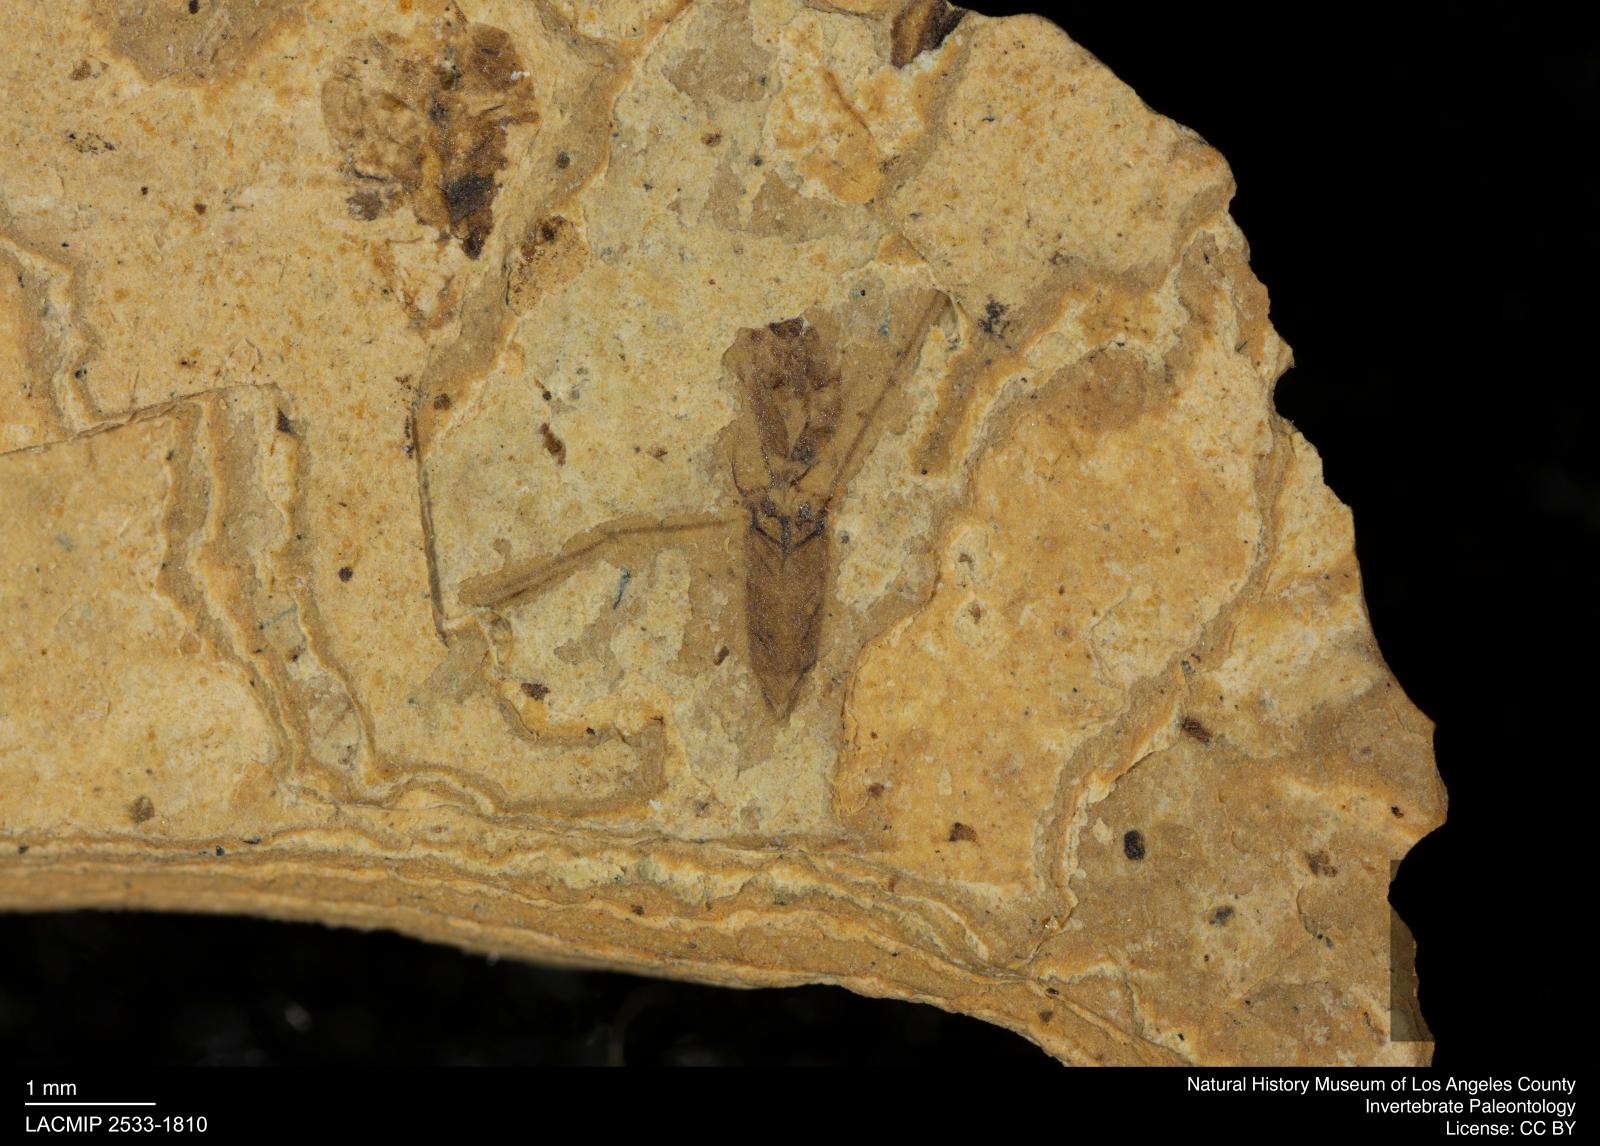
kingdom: Animalia
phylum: Arthropoda
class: Insecta
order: Hemiptera
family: Notonectidae
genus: Notonecta
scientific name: Notonecta
